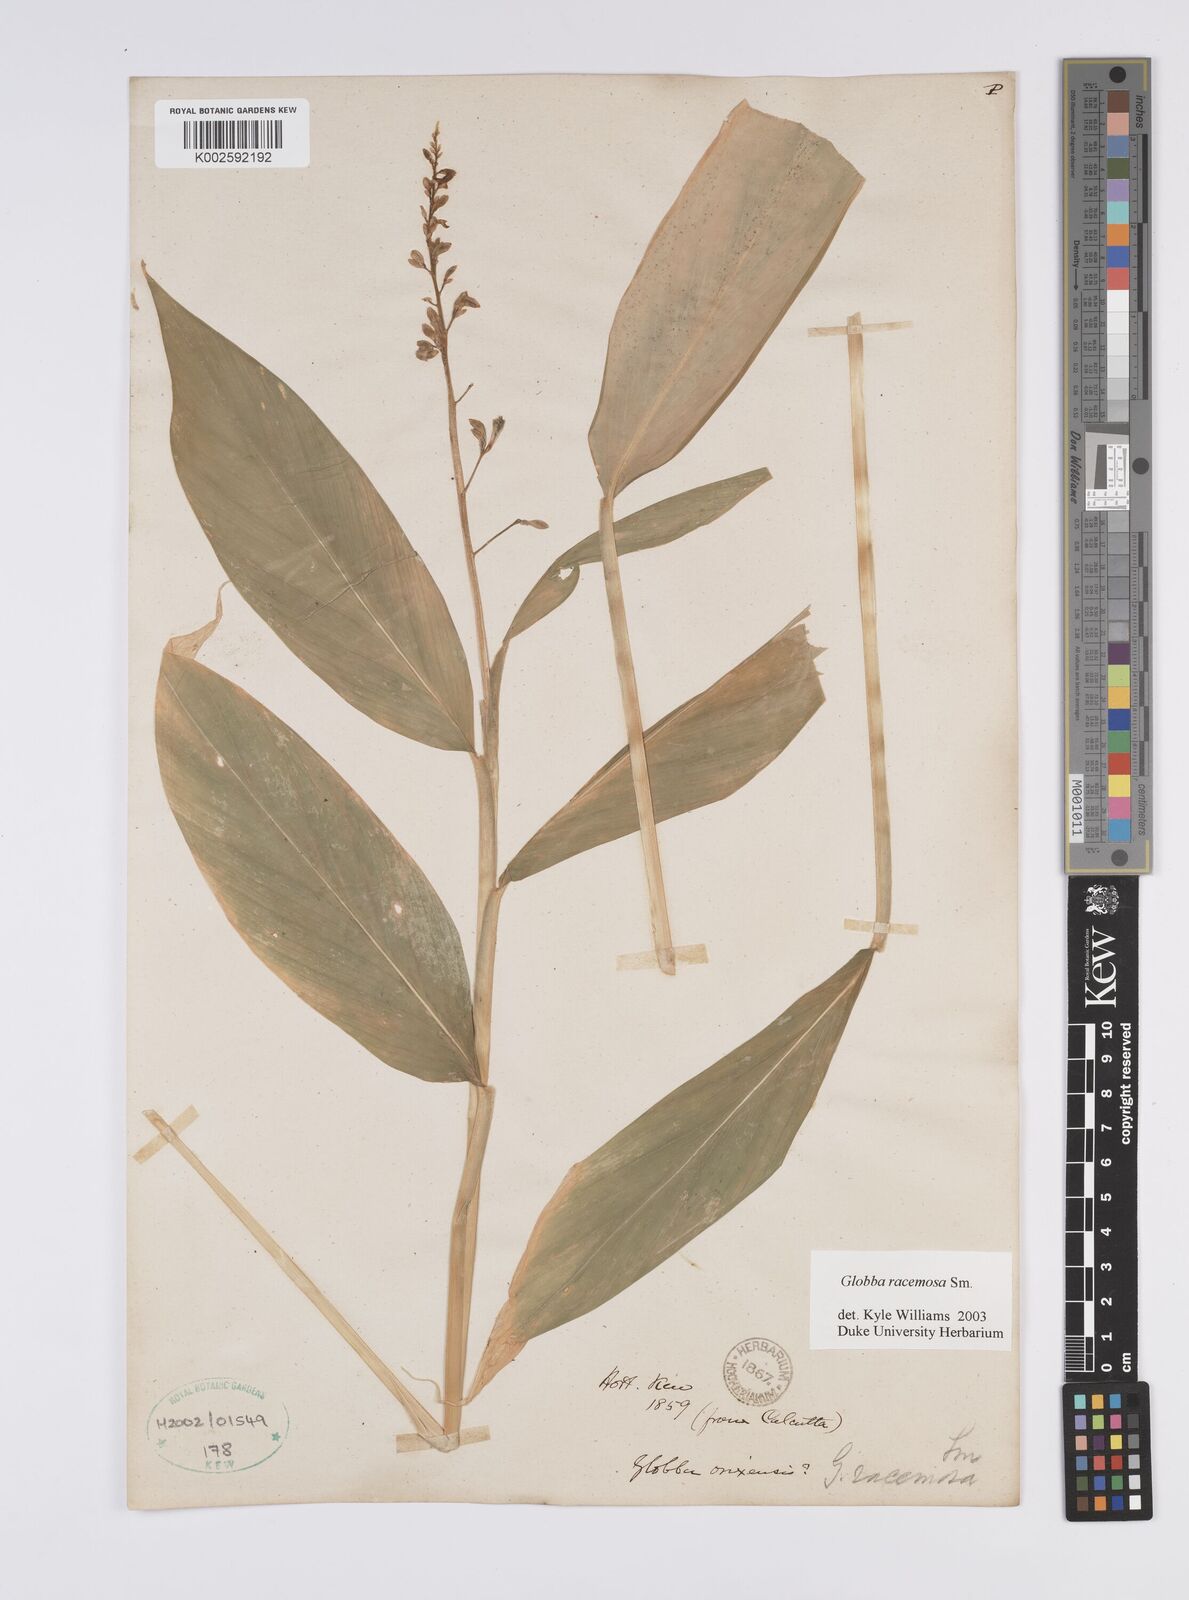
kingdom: Plantae
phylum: Tracheophyta
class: Liliopsida
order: Zingiberales
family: Zingiberaceae
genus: Globba
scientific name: Globba racemosa
